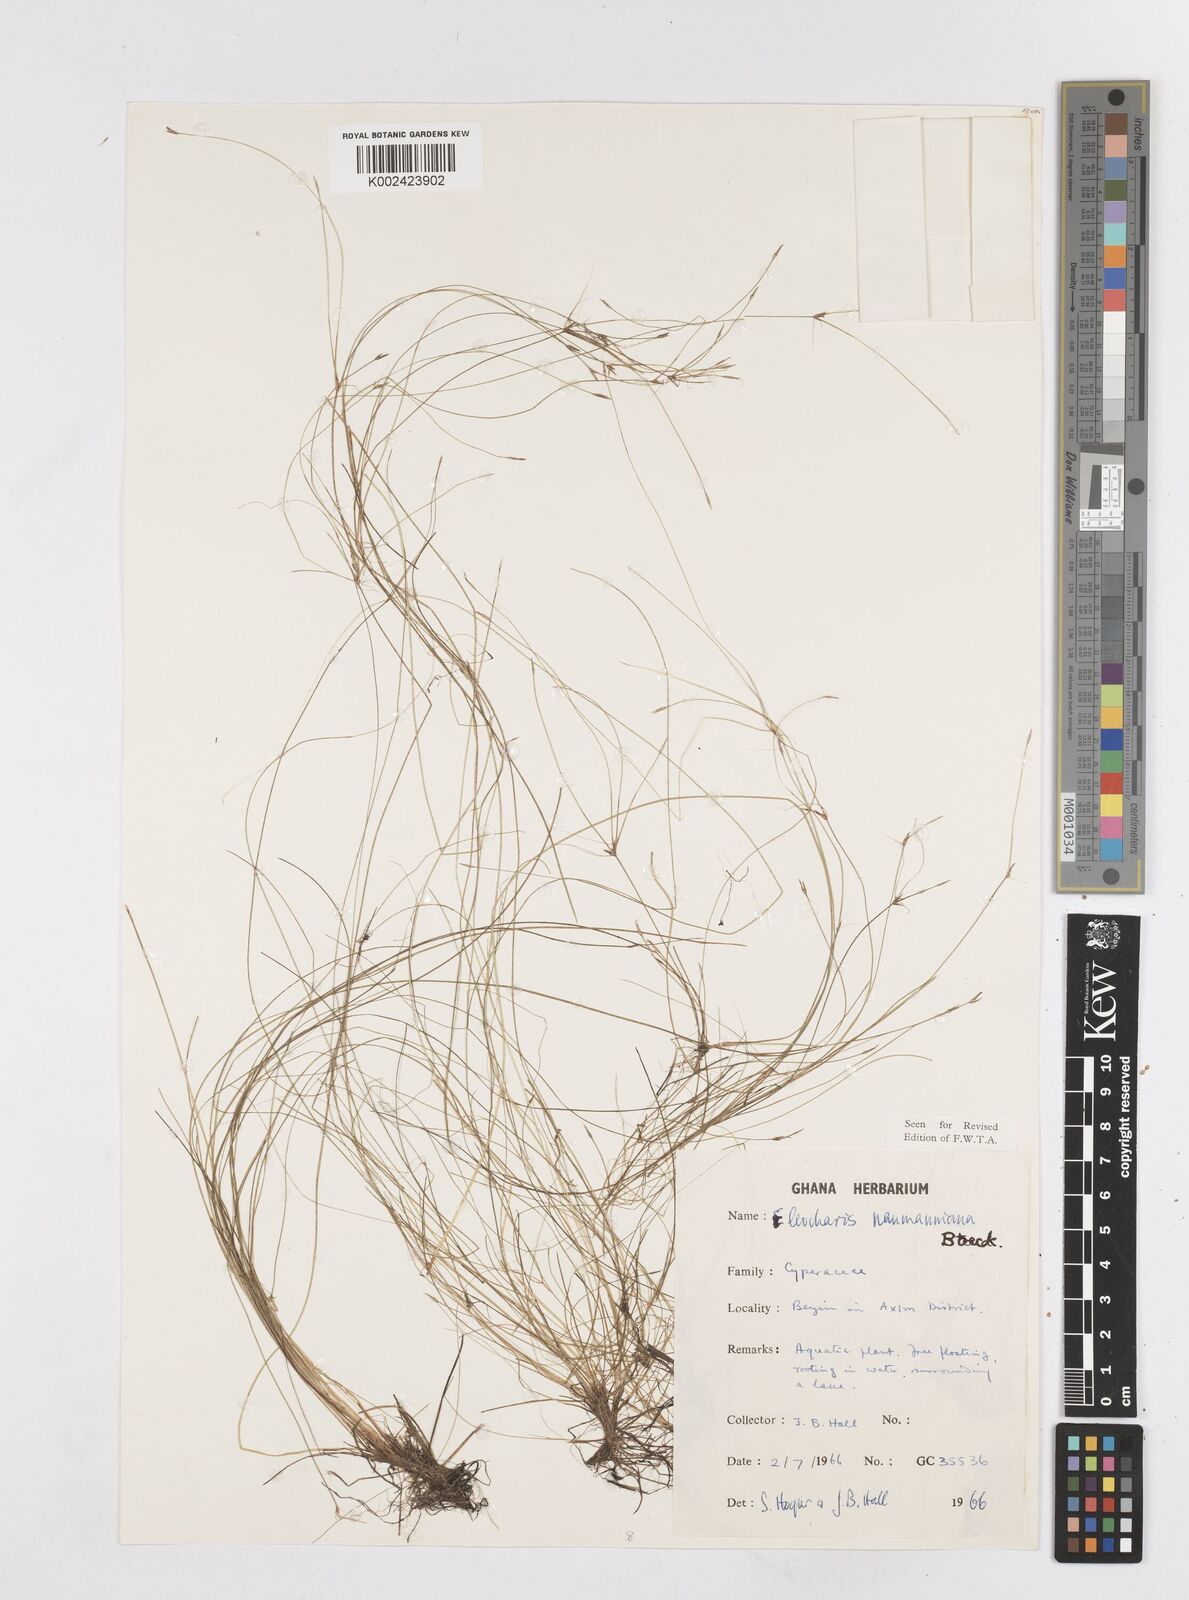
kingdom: Plantae
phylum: Tracheophyta
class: Liliopsida
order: Poales
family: Cyperaceae
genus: Eleocharis
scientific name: Eleocharis naumanniana
